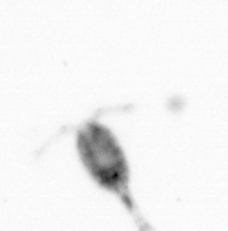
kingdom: Animalia
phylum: Arthropoda
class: Copepoda
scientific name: Copepoda
